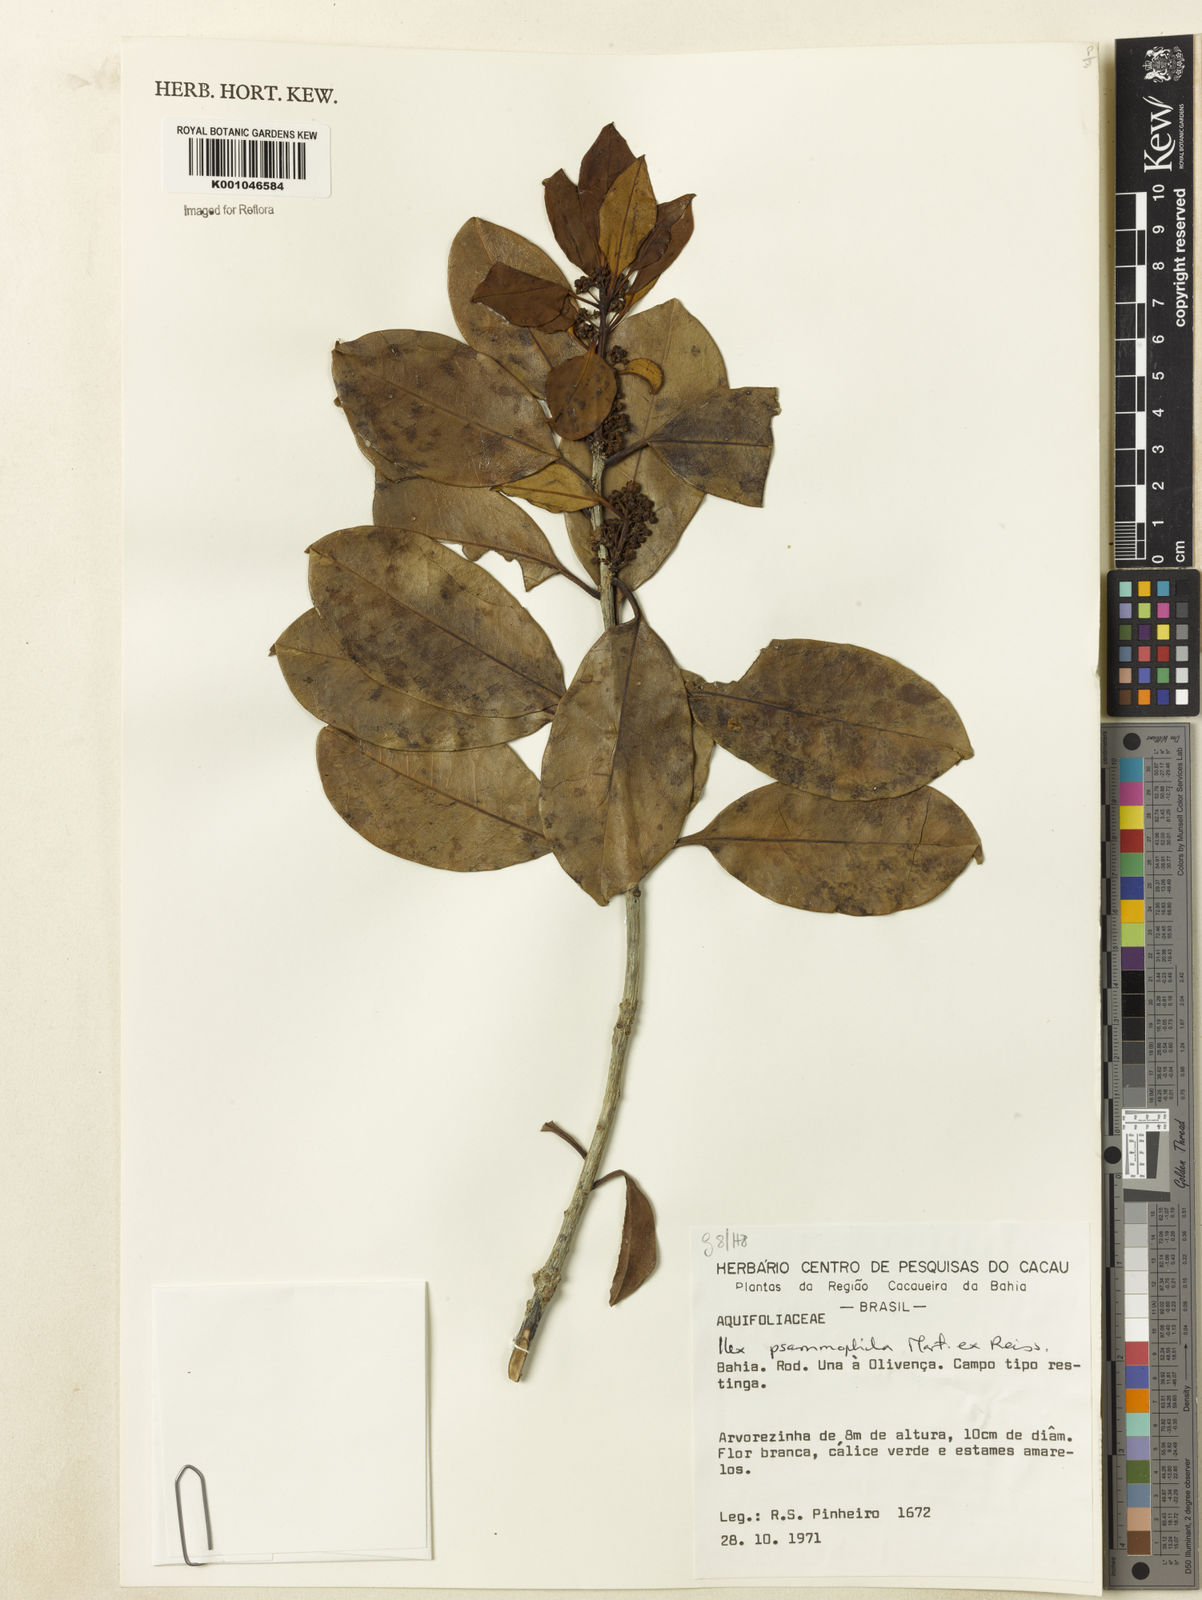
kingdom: Plantae
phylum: Tracheophyta
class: Magnoliopsida
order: Aquifoliales
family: Aquifoliaceae
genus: Ilex
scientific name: Ilex psammophila
